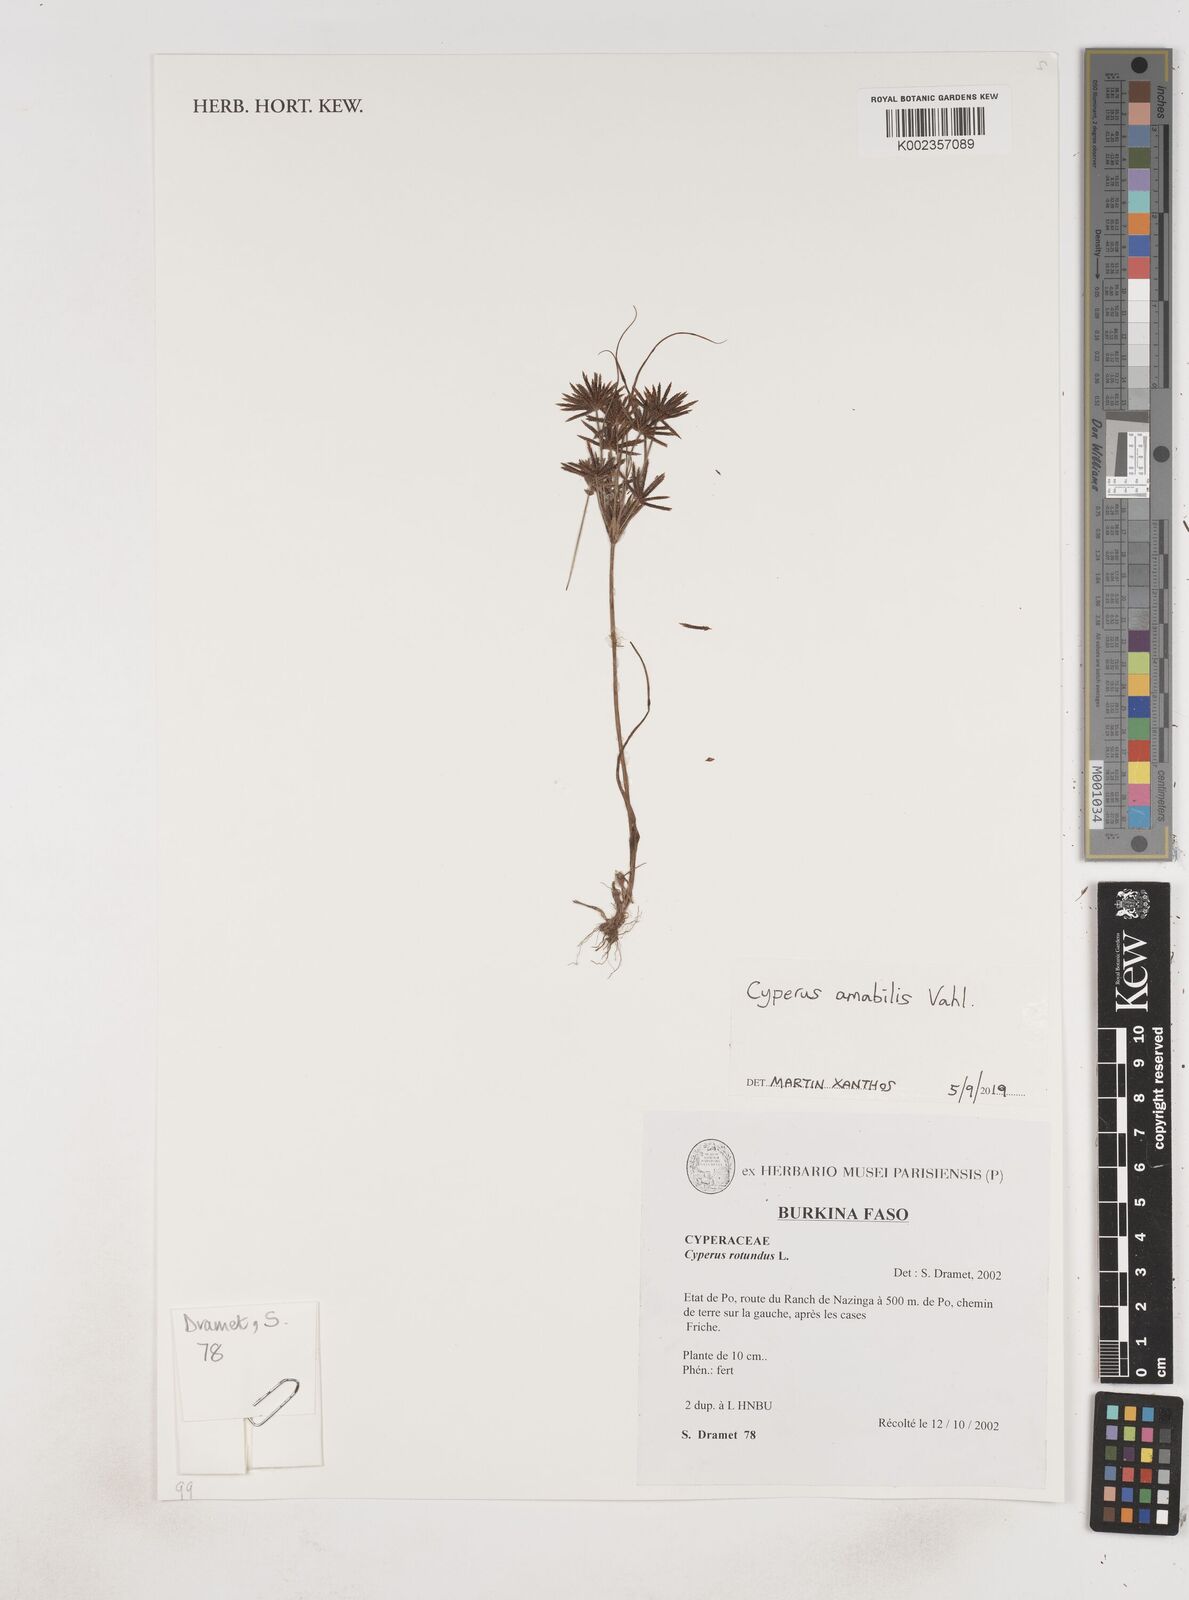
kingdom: Plantae
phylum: Tracheophyta
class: Liliopsida
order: Poales
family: Cyperaceae
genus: Cyperus
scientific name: Cyperus amabilis
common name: Foothill flat sedge
